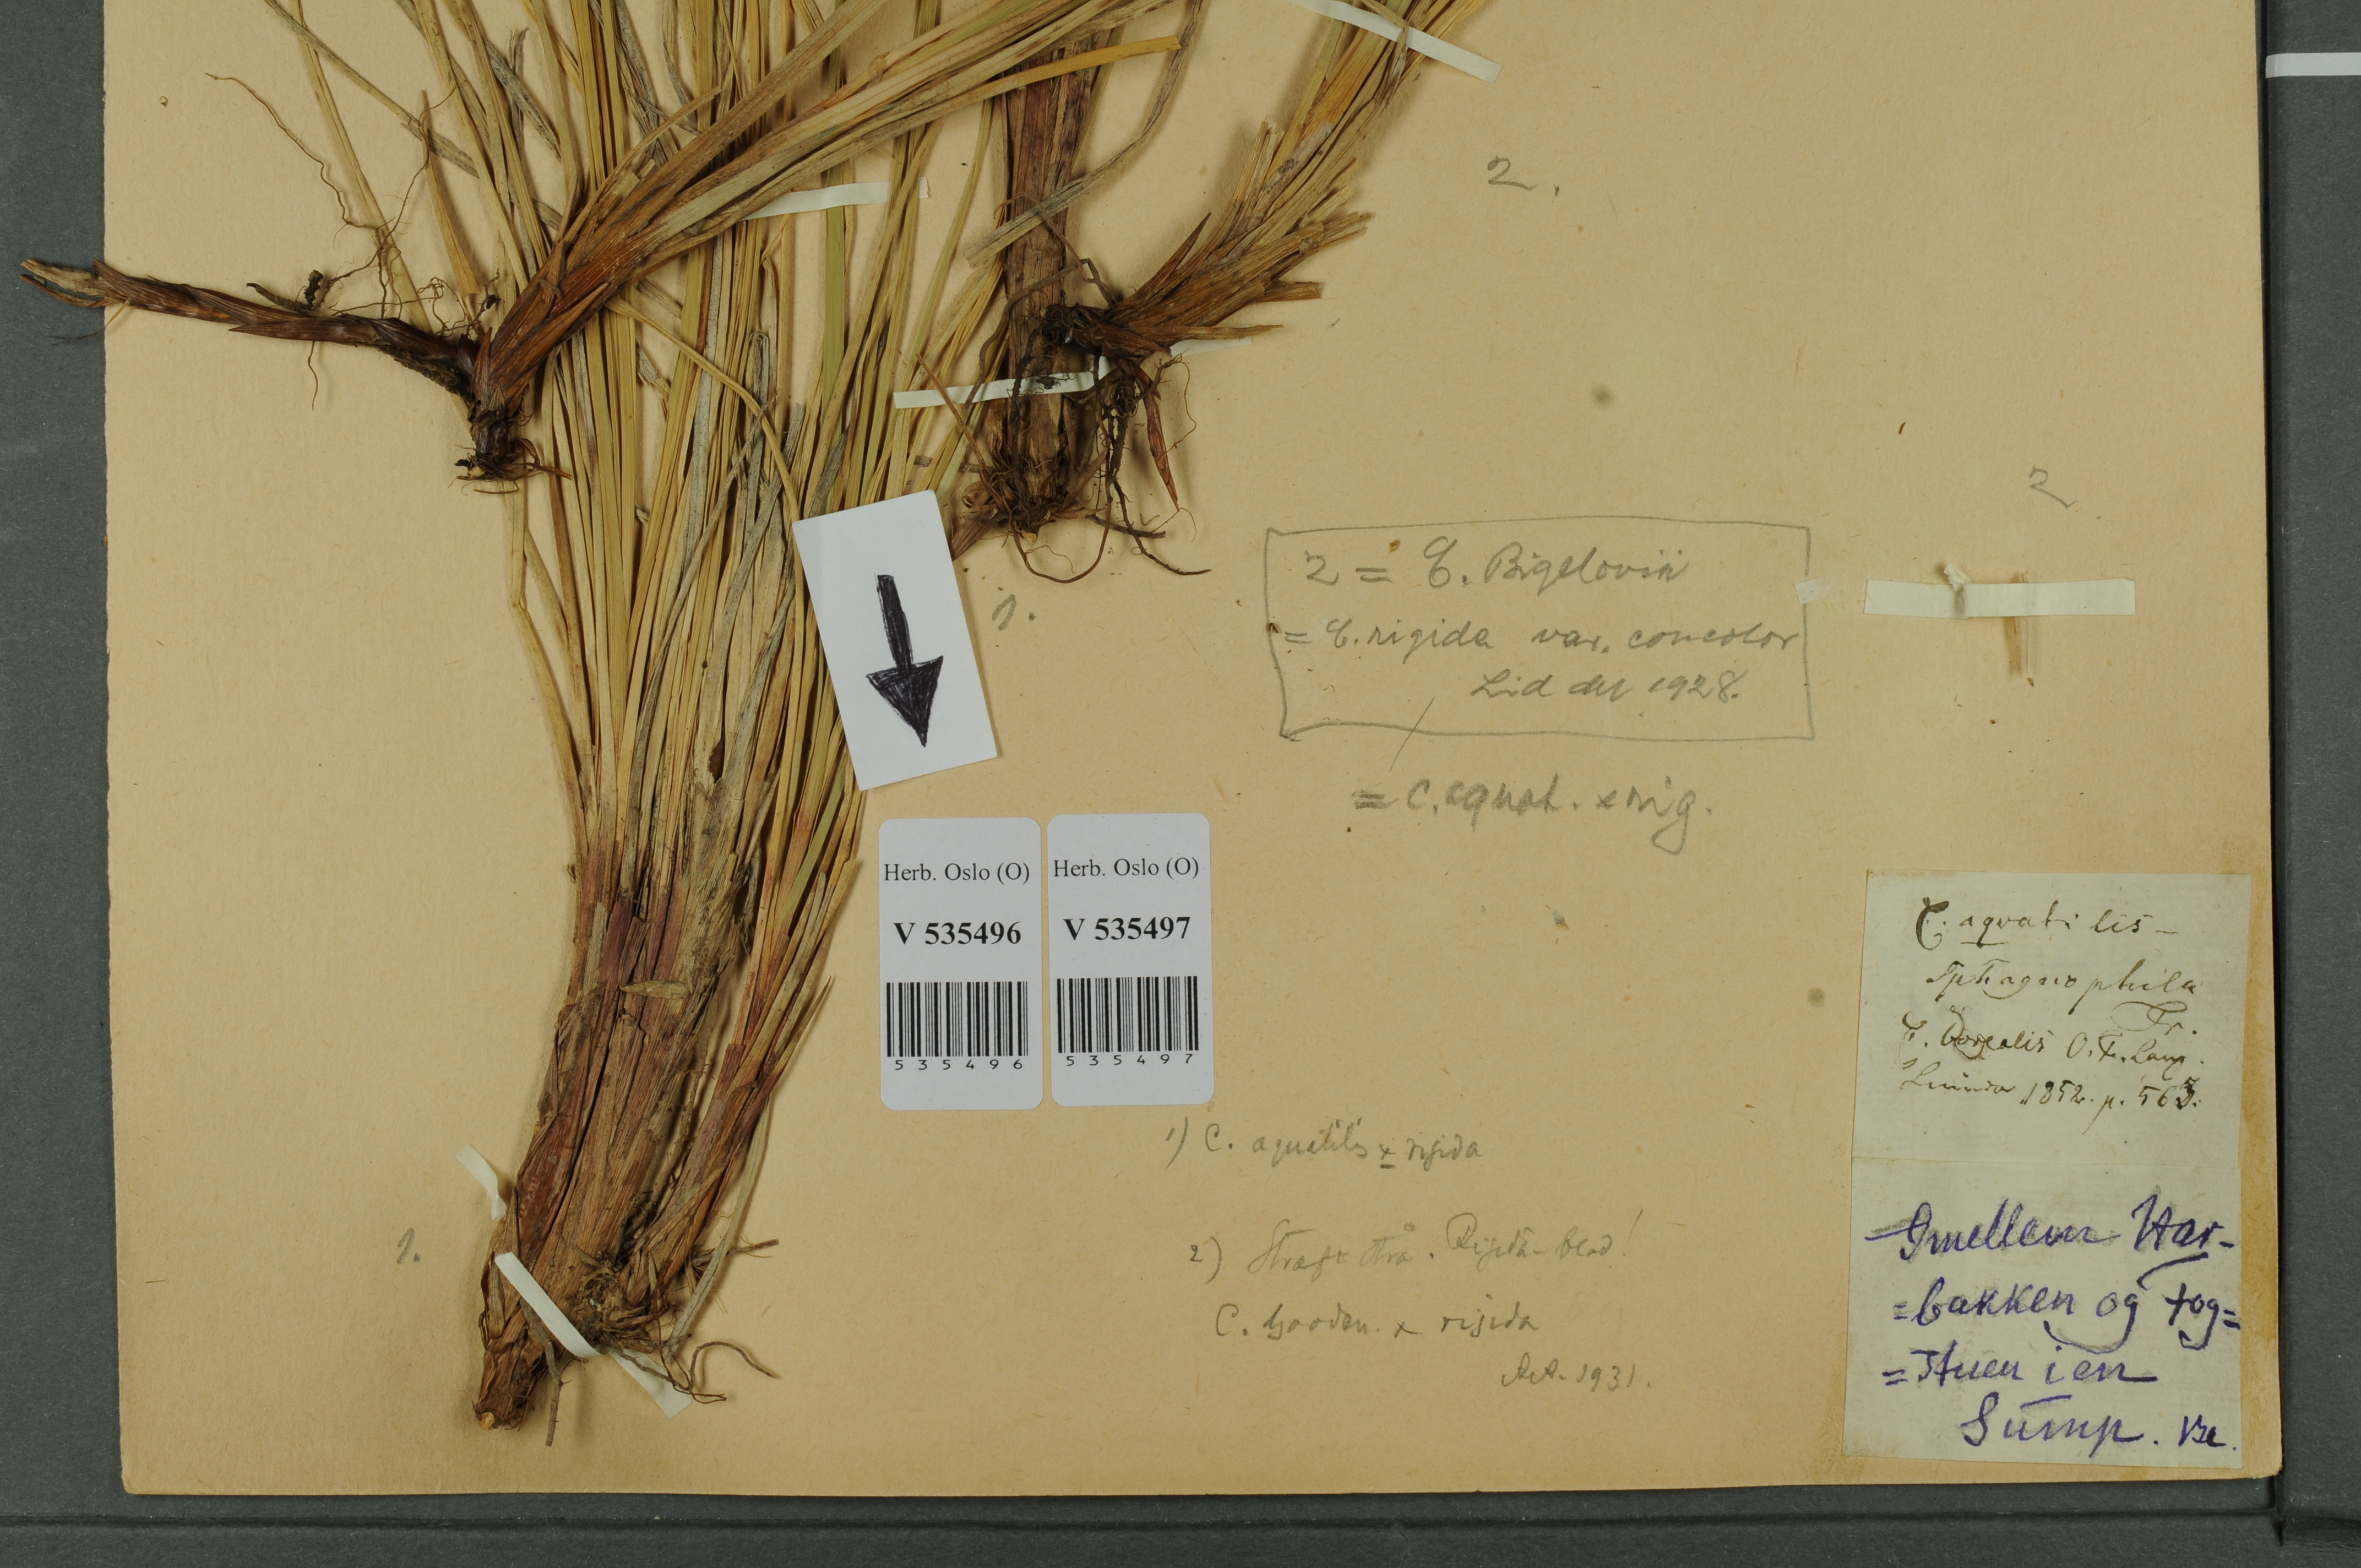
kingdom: Plantae
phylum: Tracheophyta
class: Liliopsida
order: Poales
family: Cyperaceae
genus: Carex
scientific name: Carex
